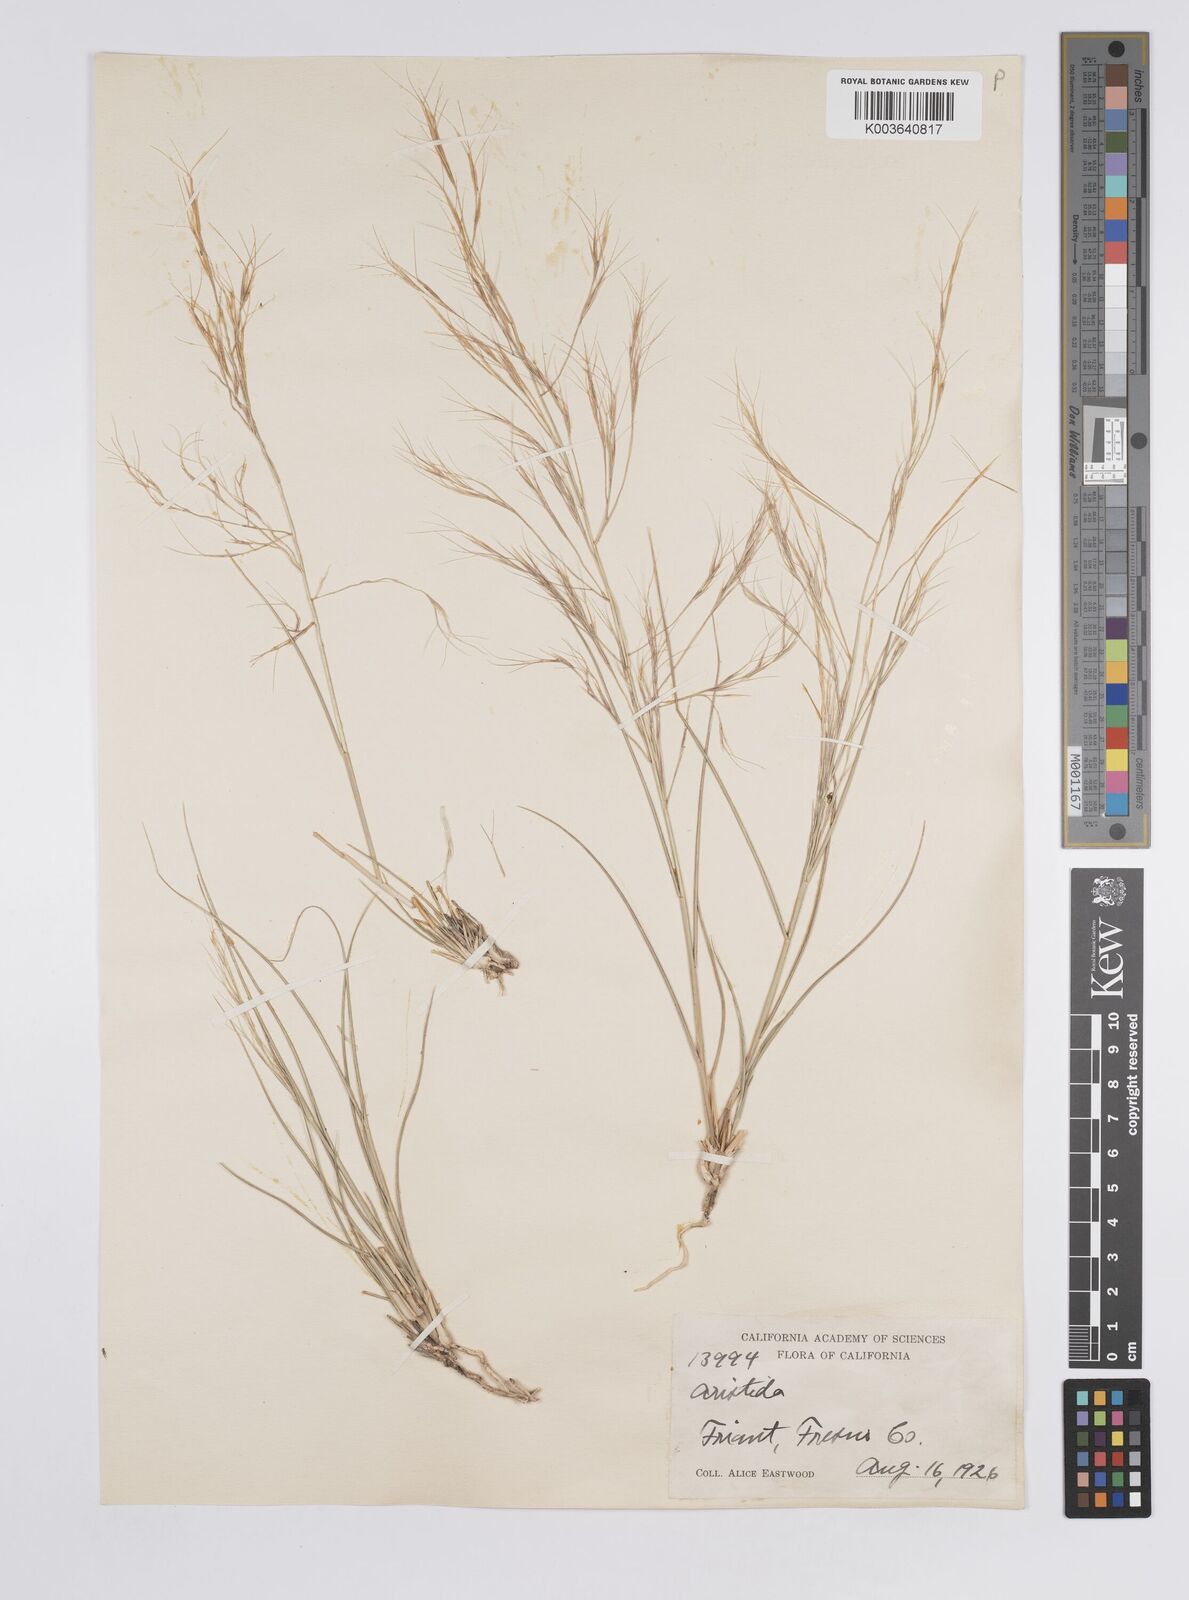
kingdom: Plantae
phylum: Tracheophyta
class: Liliopsida
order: Poales
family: Poaceae
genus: Aristida
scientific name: Aristida hamulosa
